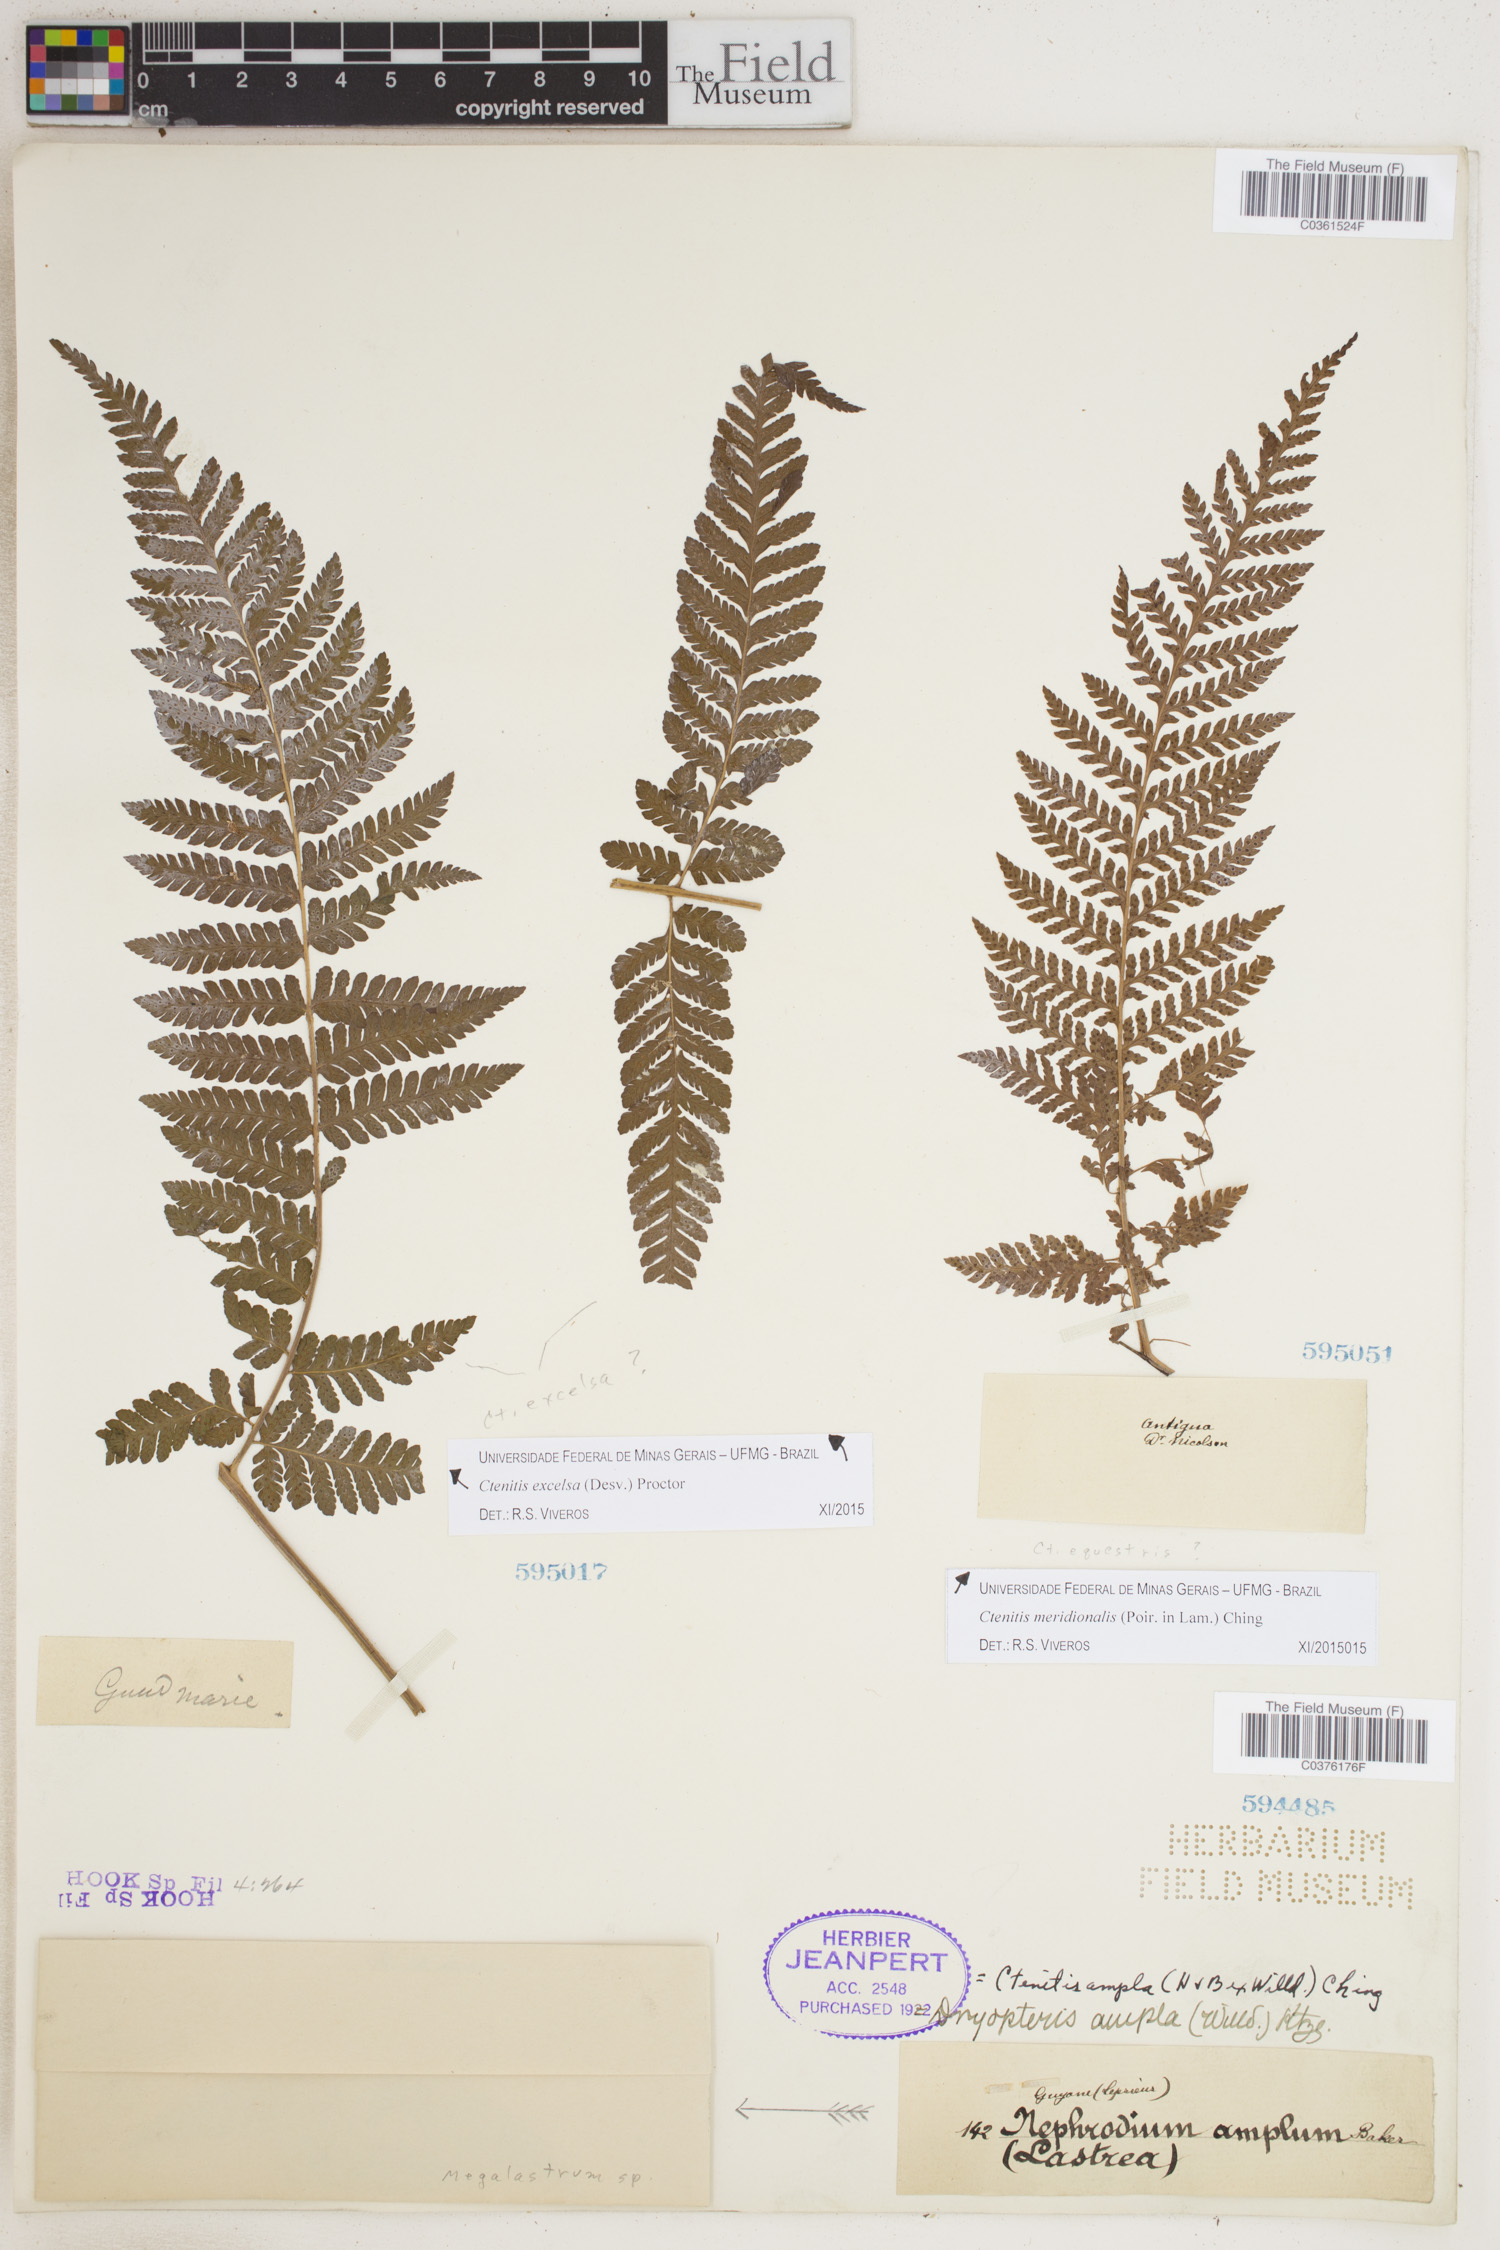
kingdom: Plantae
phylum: Tracheophyta
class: Polypodiopsida
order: Polypodiales
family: Dryopteridaceae
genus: Ctenitis
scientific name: Ctenitis sloanei
